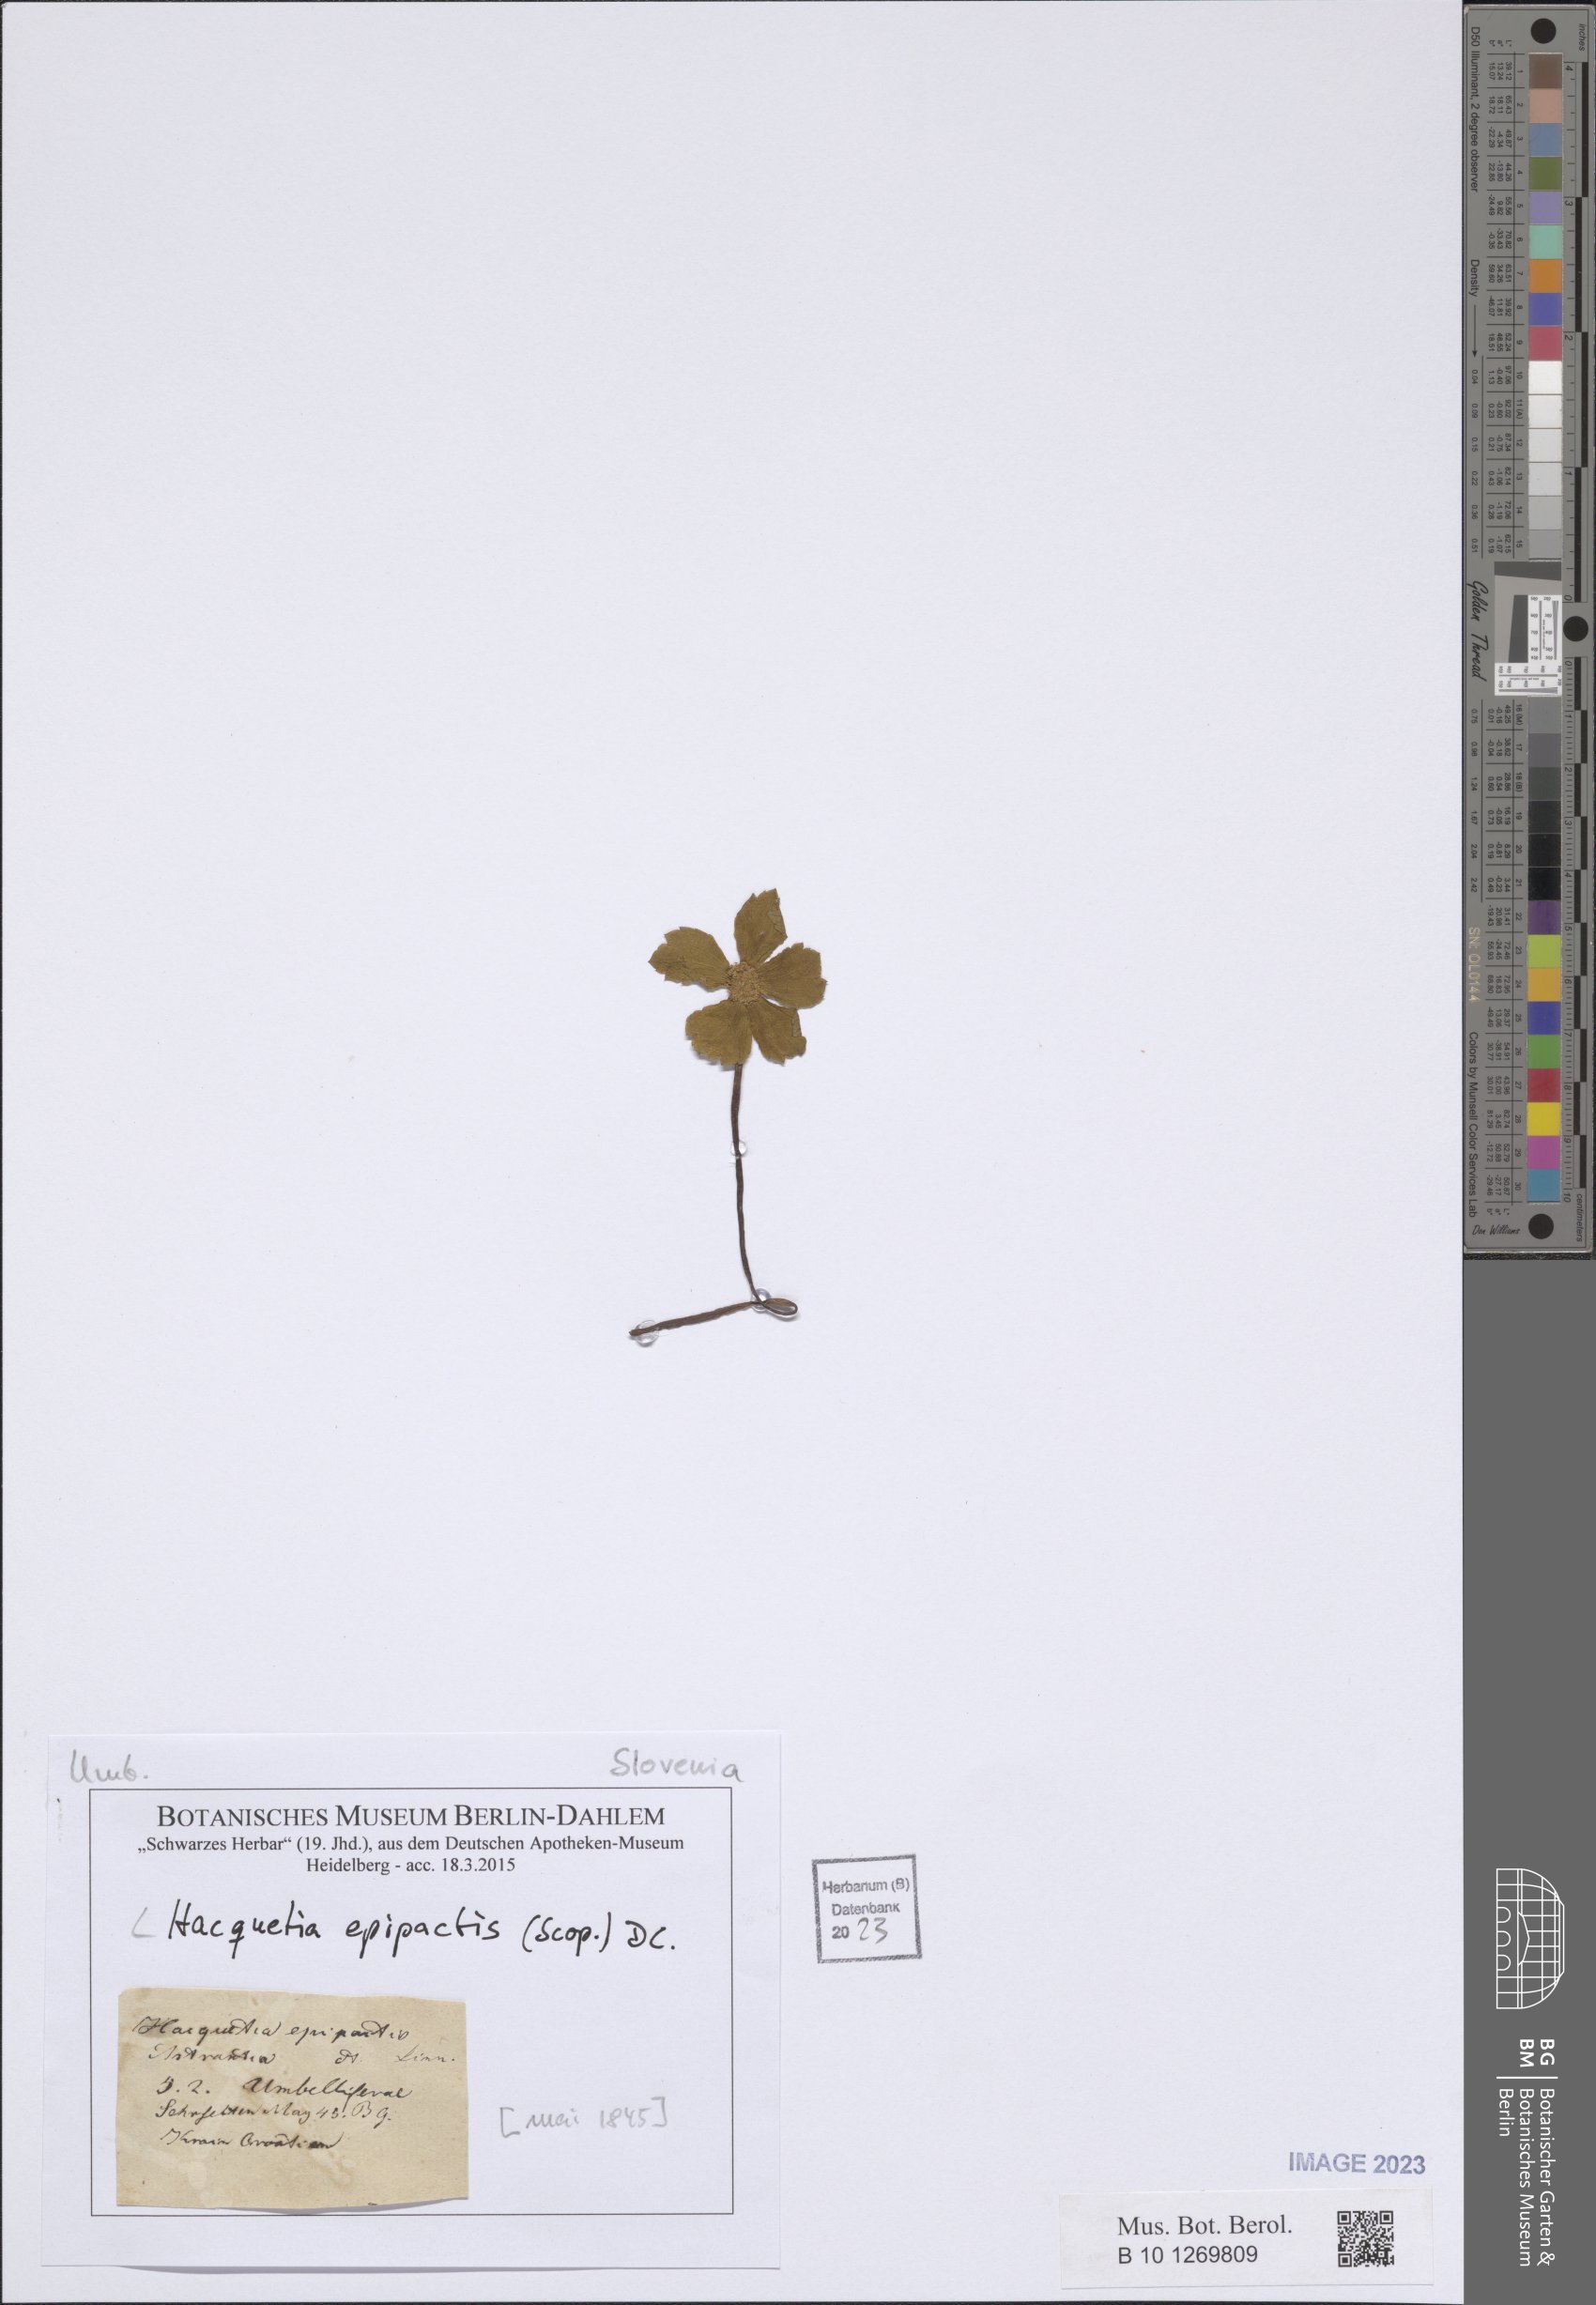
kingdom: Plantae
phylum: Tracheophyta
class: Magnoliopsida
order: Apiales
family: Apiaceae
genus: Sanicula
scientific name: Sanicula epipactis
